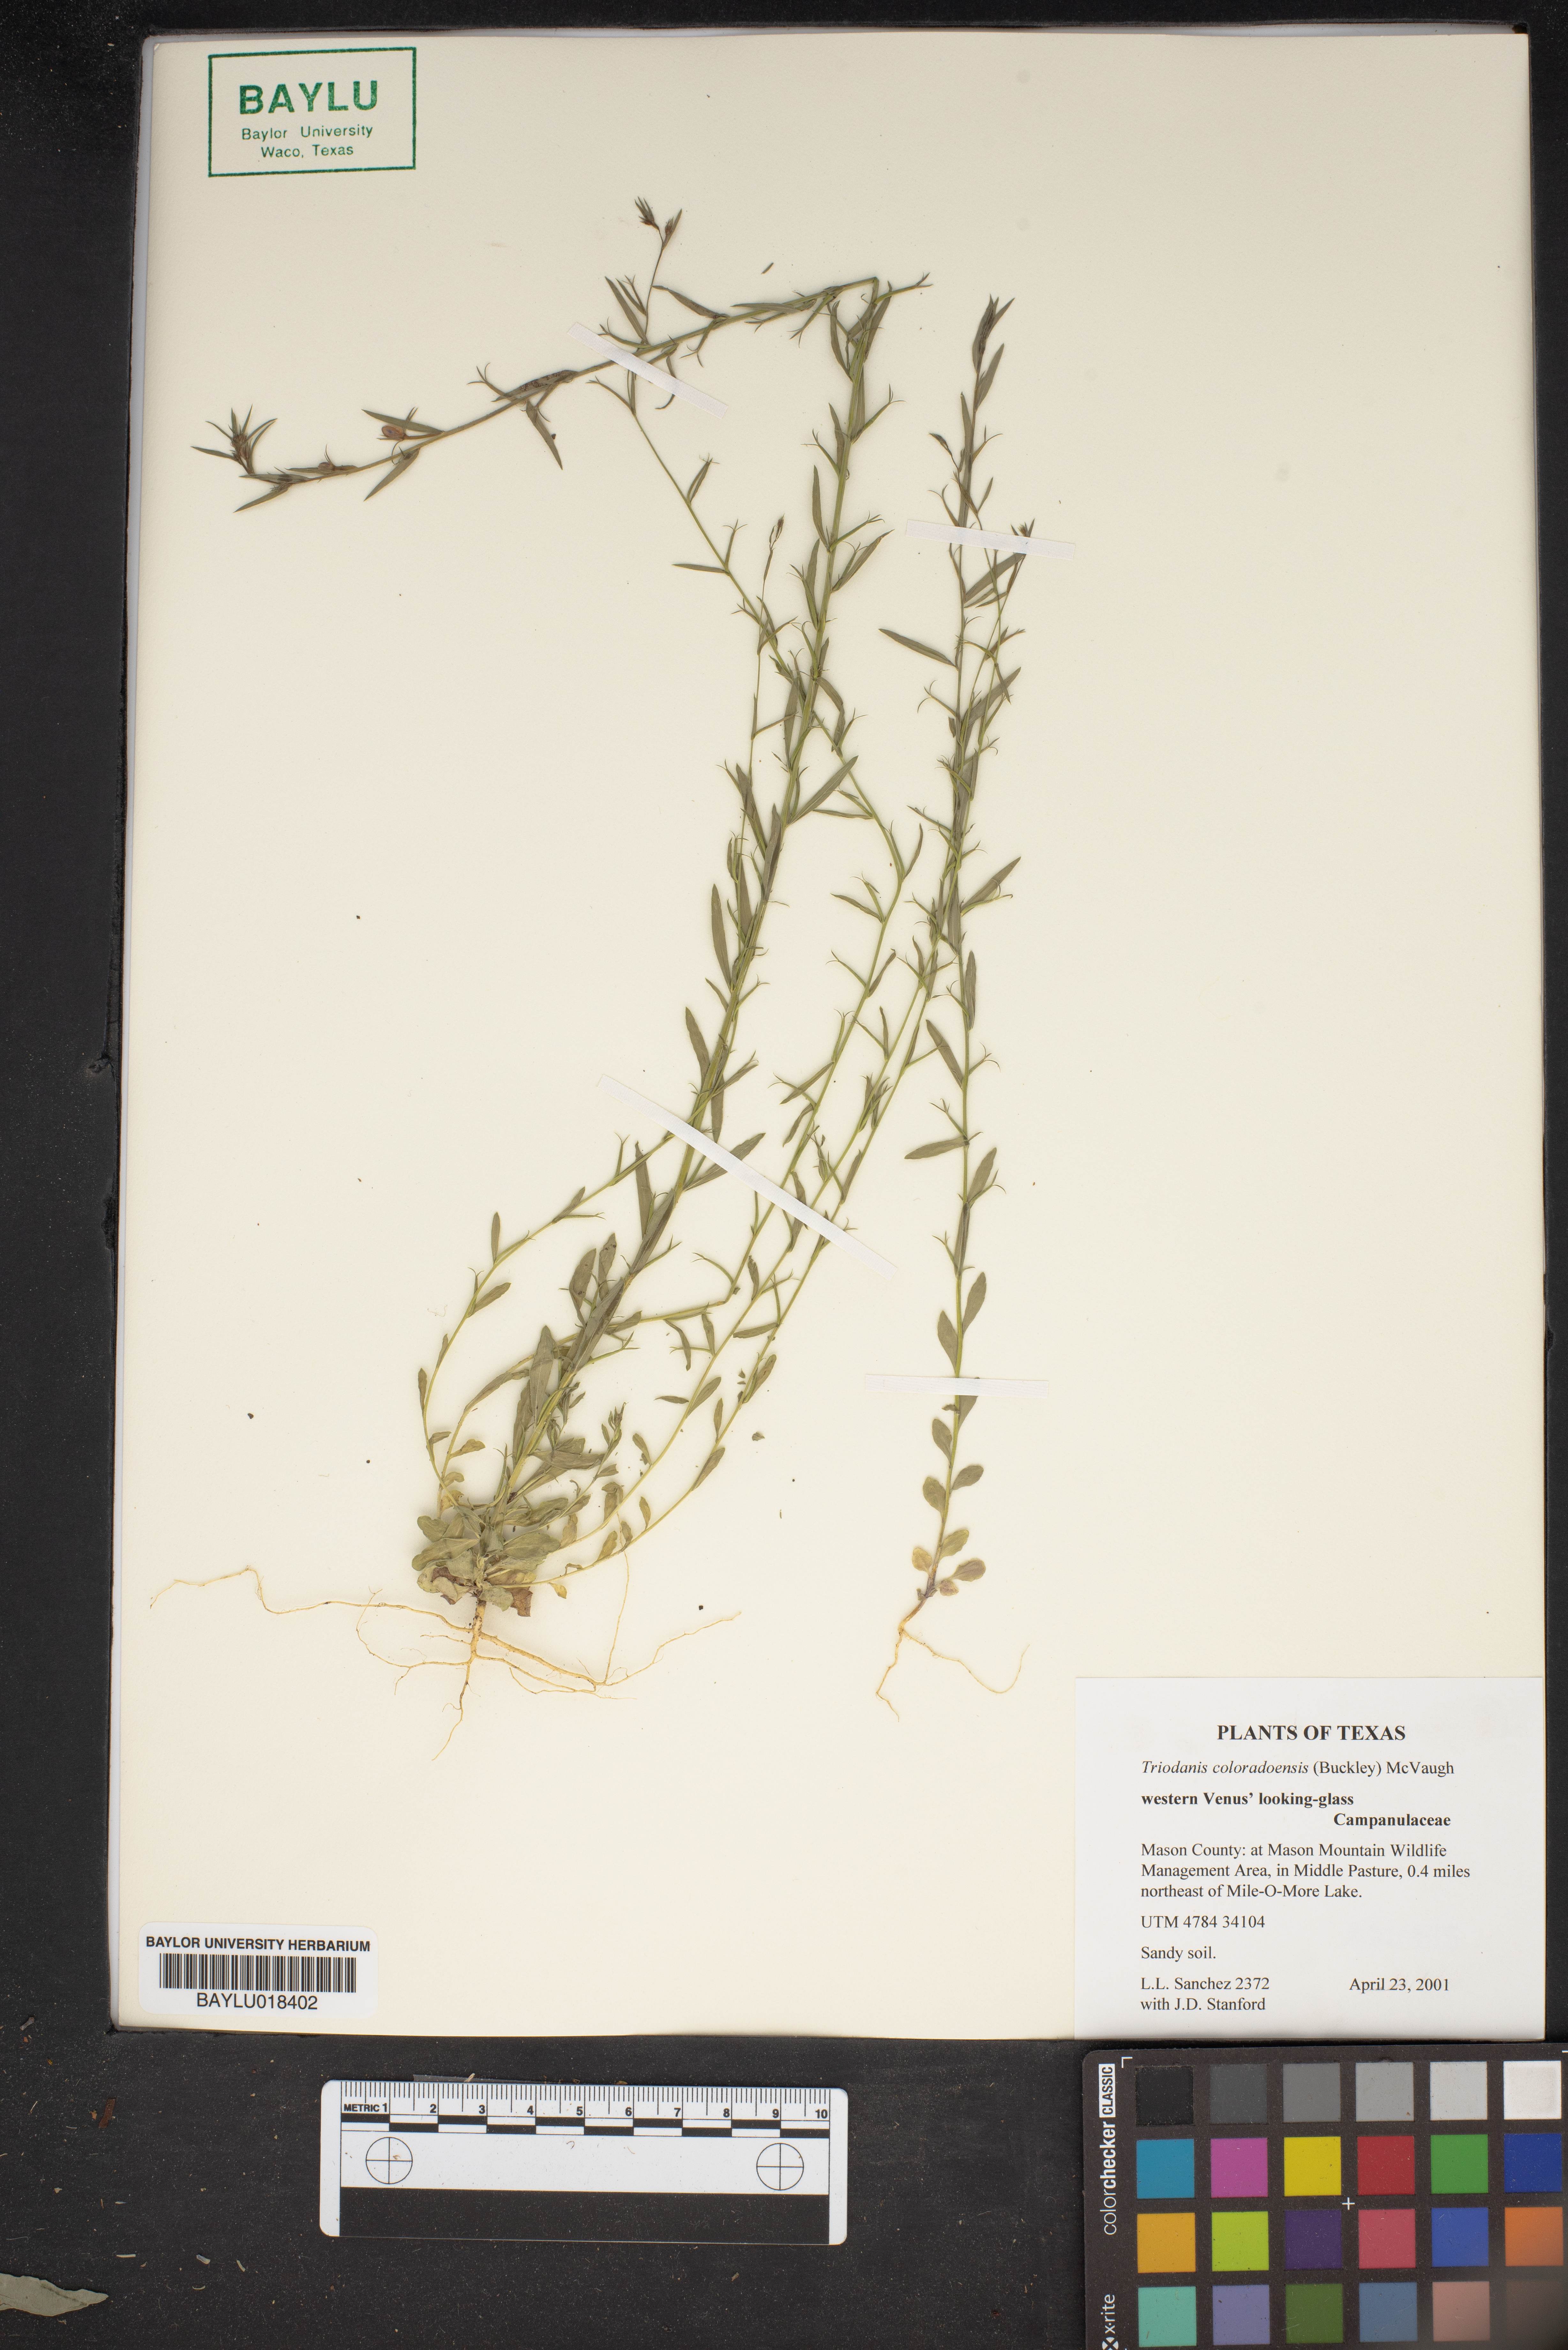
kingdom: Plantae
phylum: Tracheophyta
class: Magnoliopsida
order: Asterales
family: Campanulaceae
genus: Triodanis
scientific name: Triodanis coloradoensis
